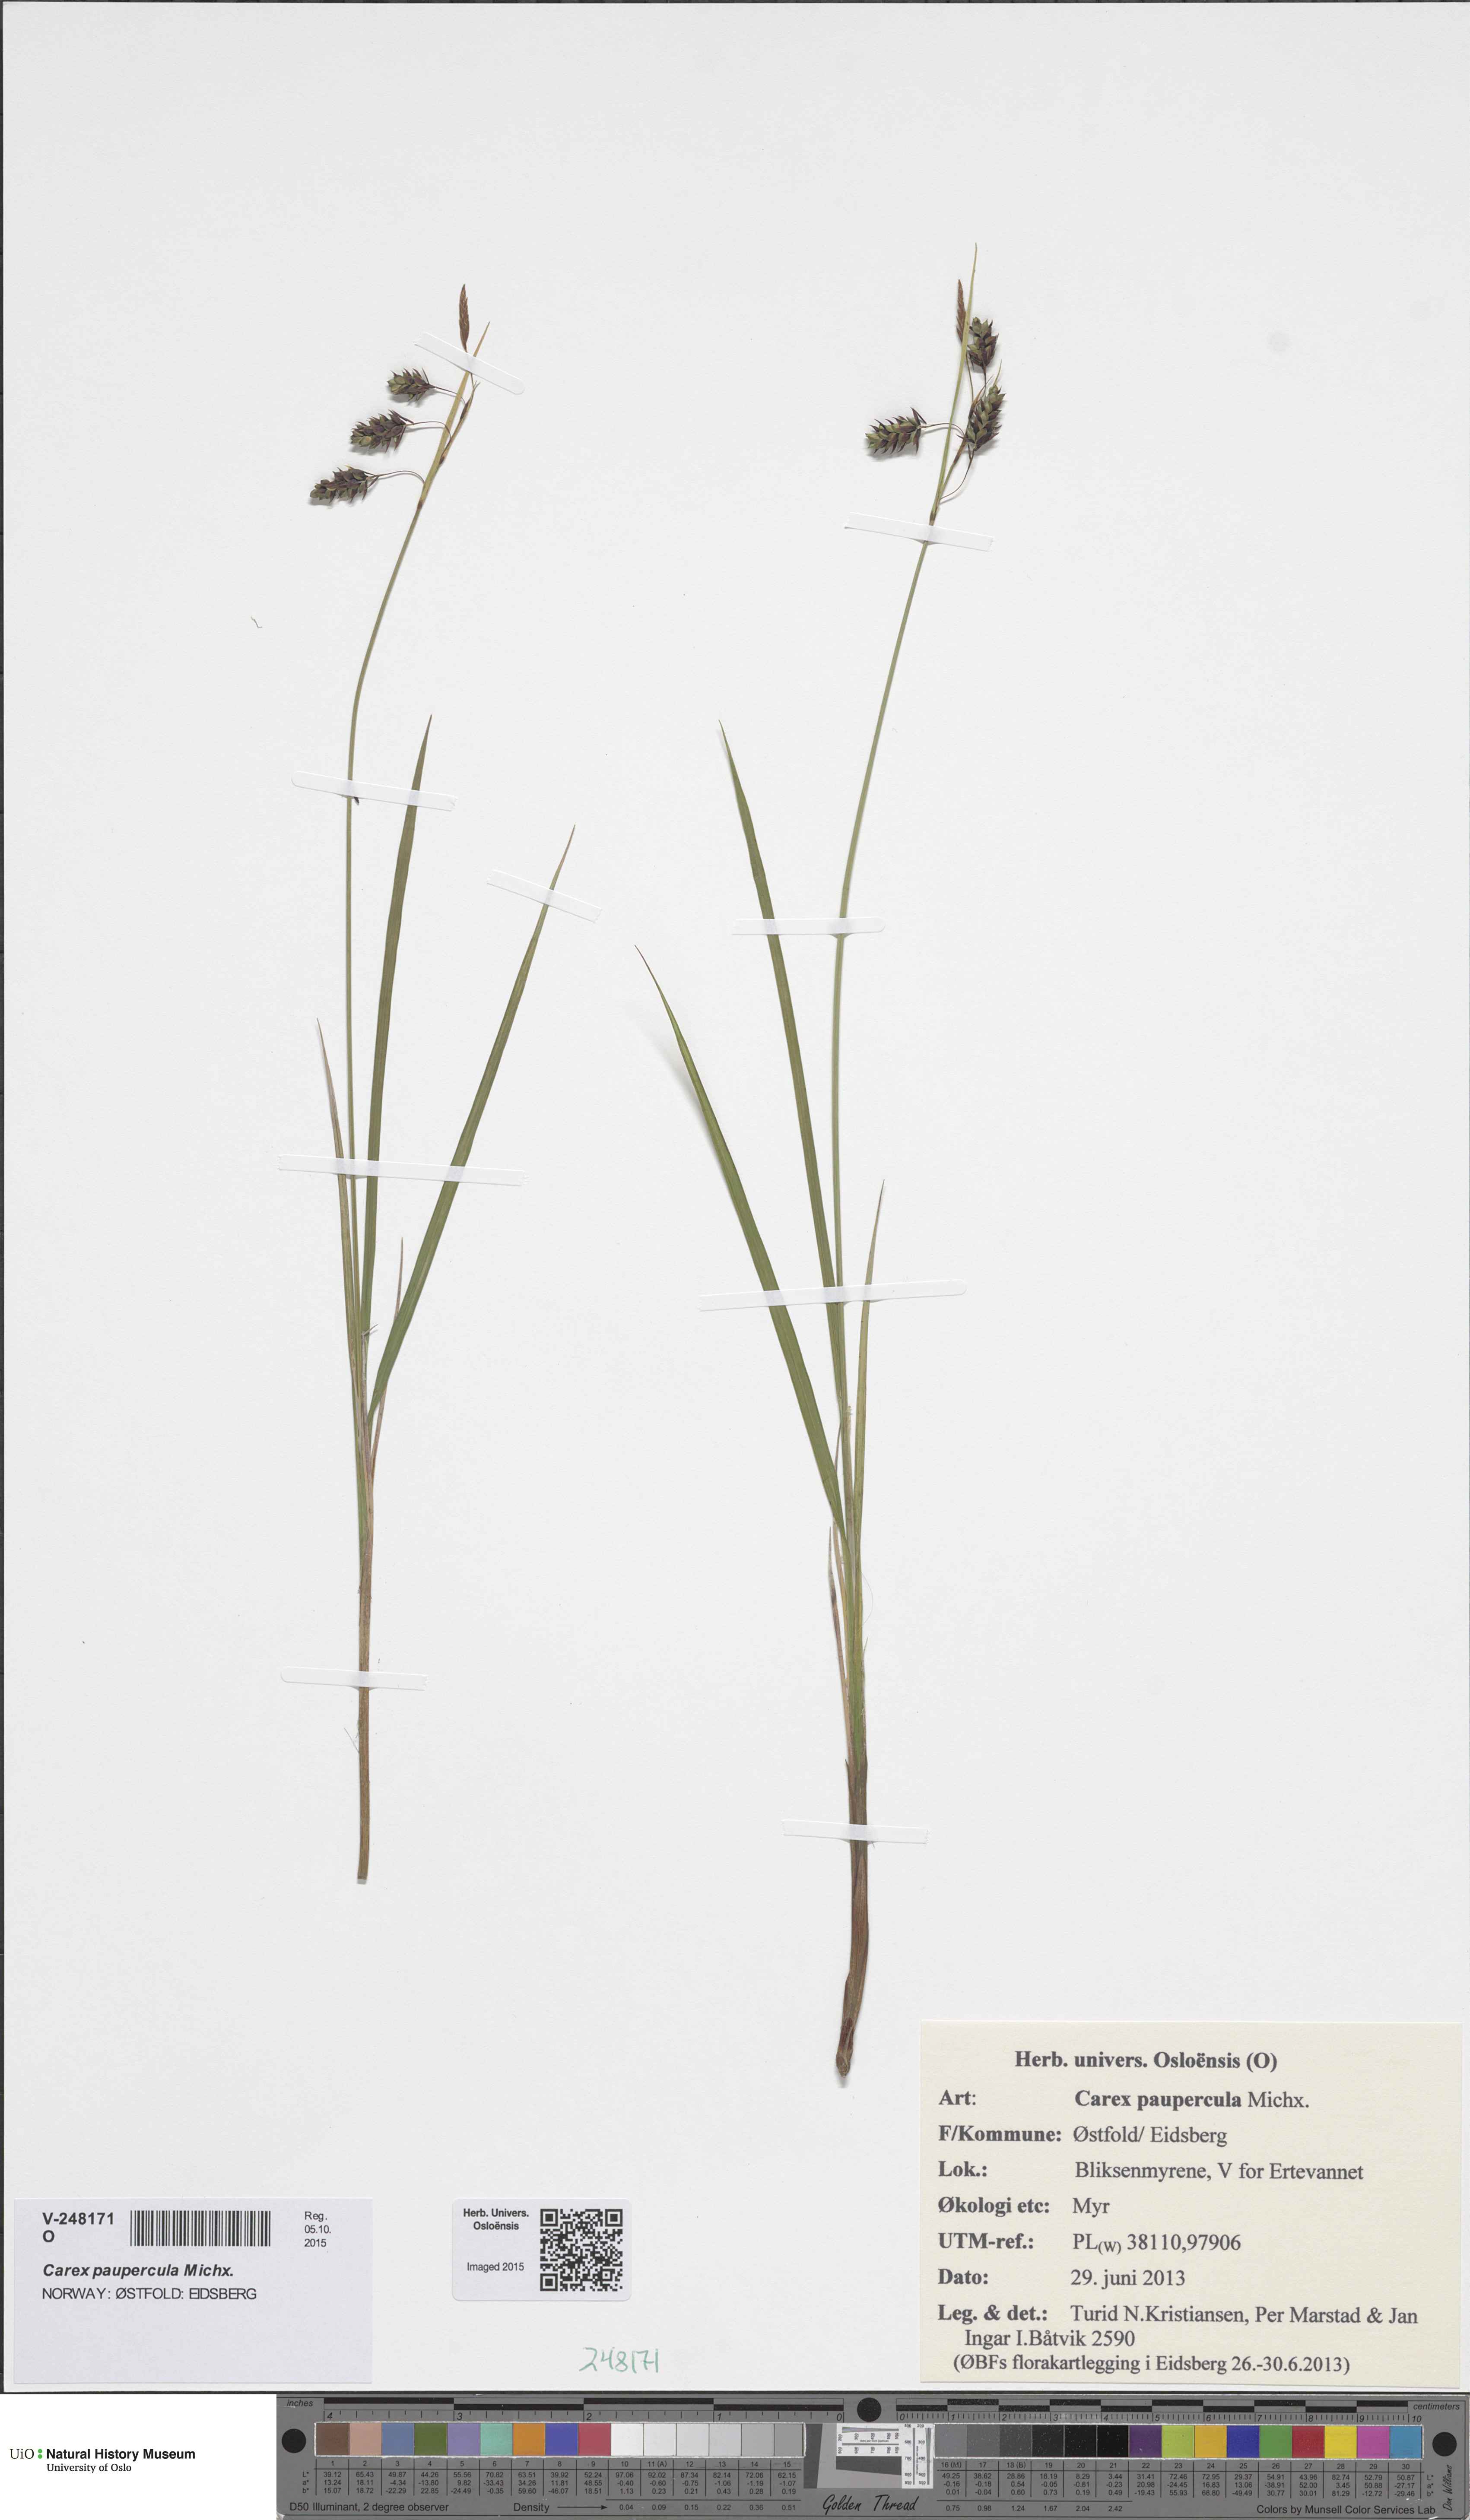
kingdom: Plantae
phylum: Tracheophyta
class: Liliopsida
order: Poales
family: Cyperaceae
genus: Carex
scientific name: Carex magellanica
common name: Bog sedge
